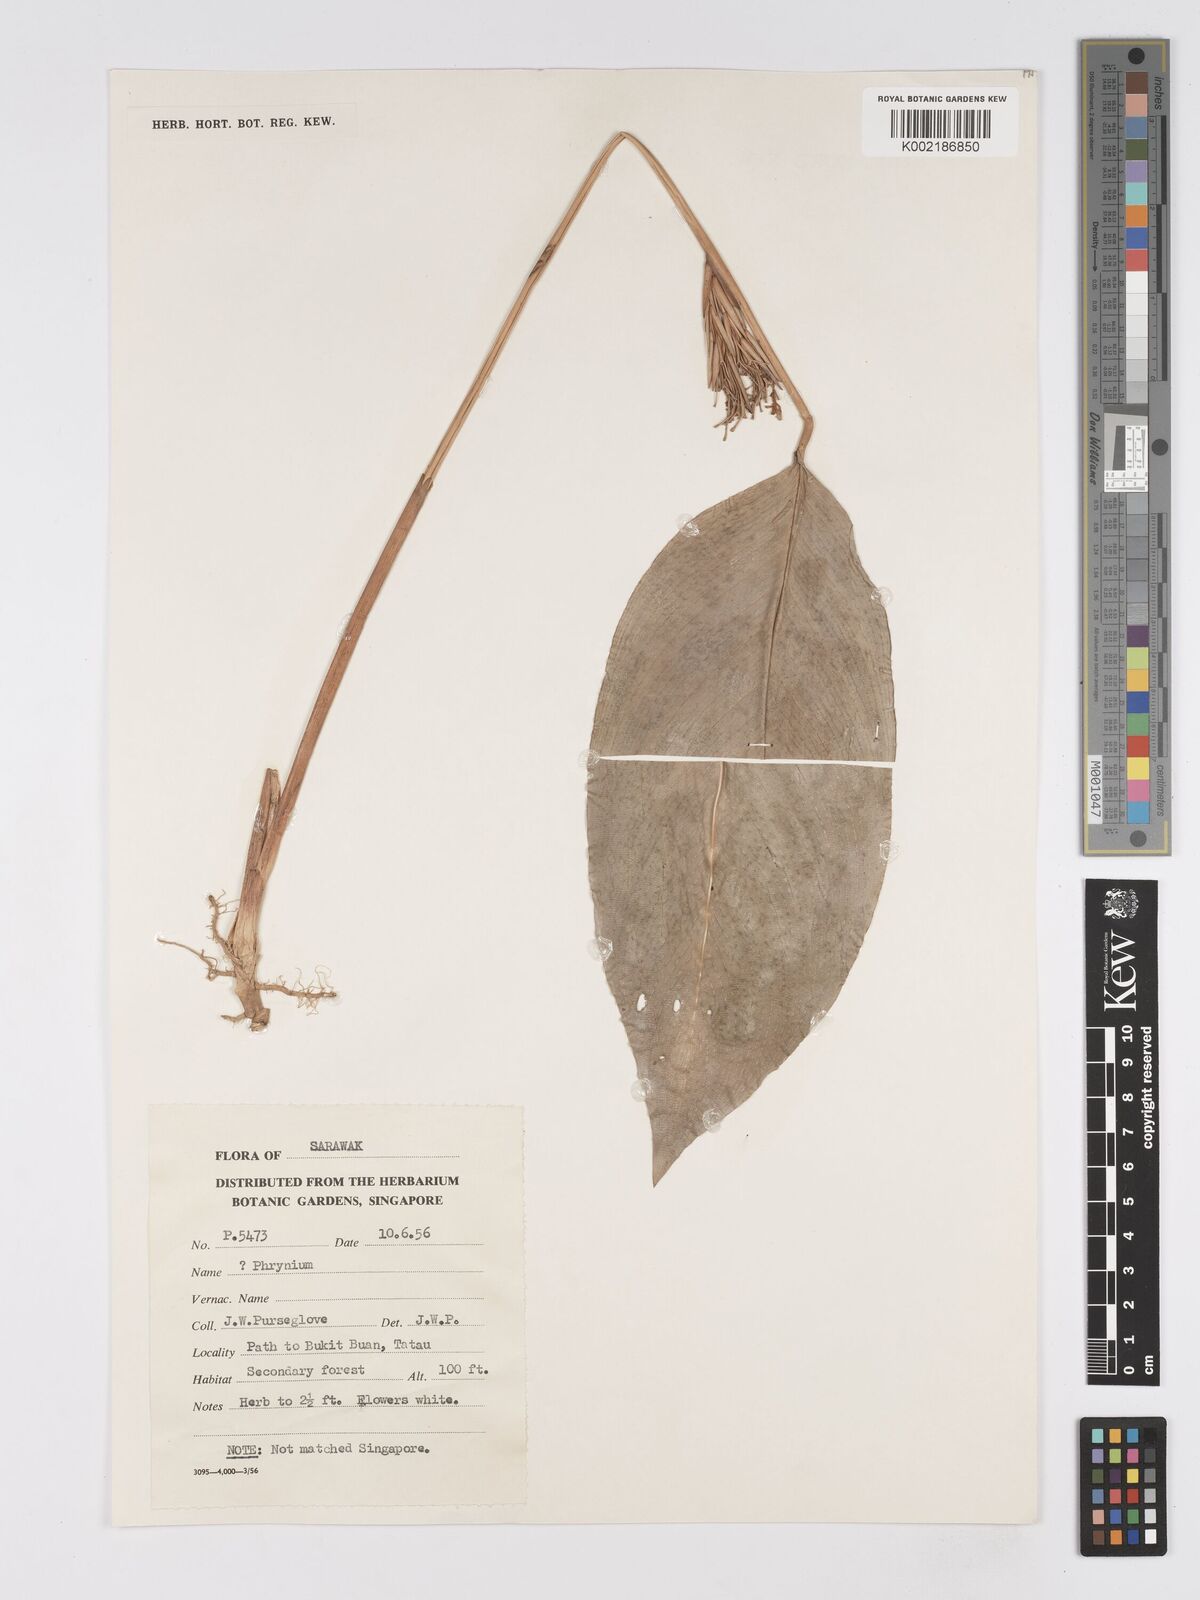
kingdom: Plantae
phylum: Tracheophyta
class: Liliopsida
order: Zingiberales
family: Marantaceae
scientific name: Marantaceae
